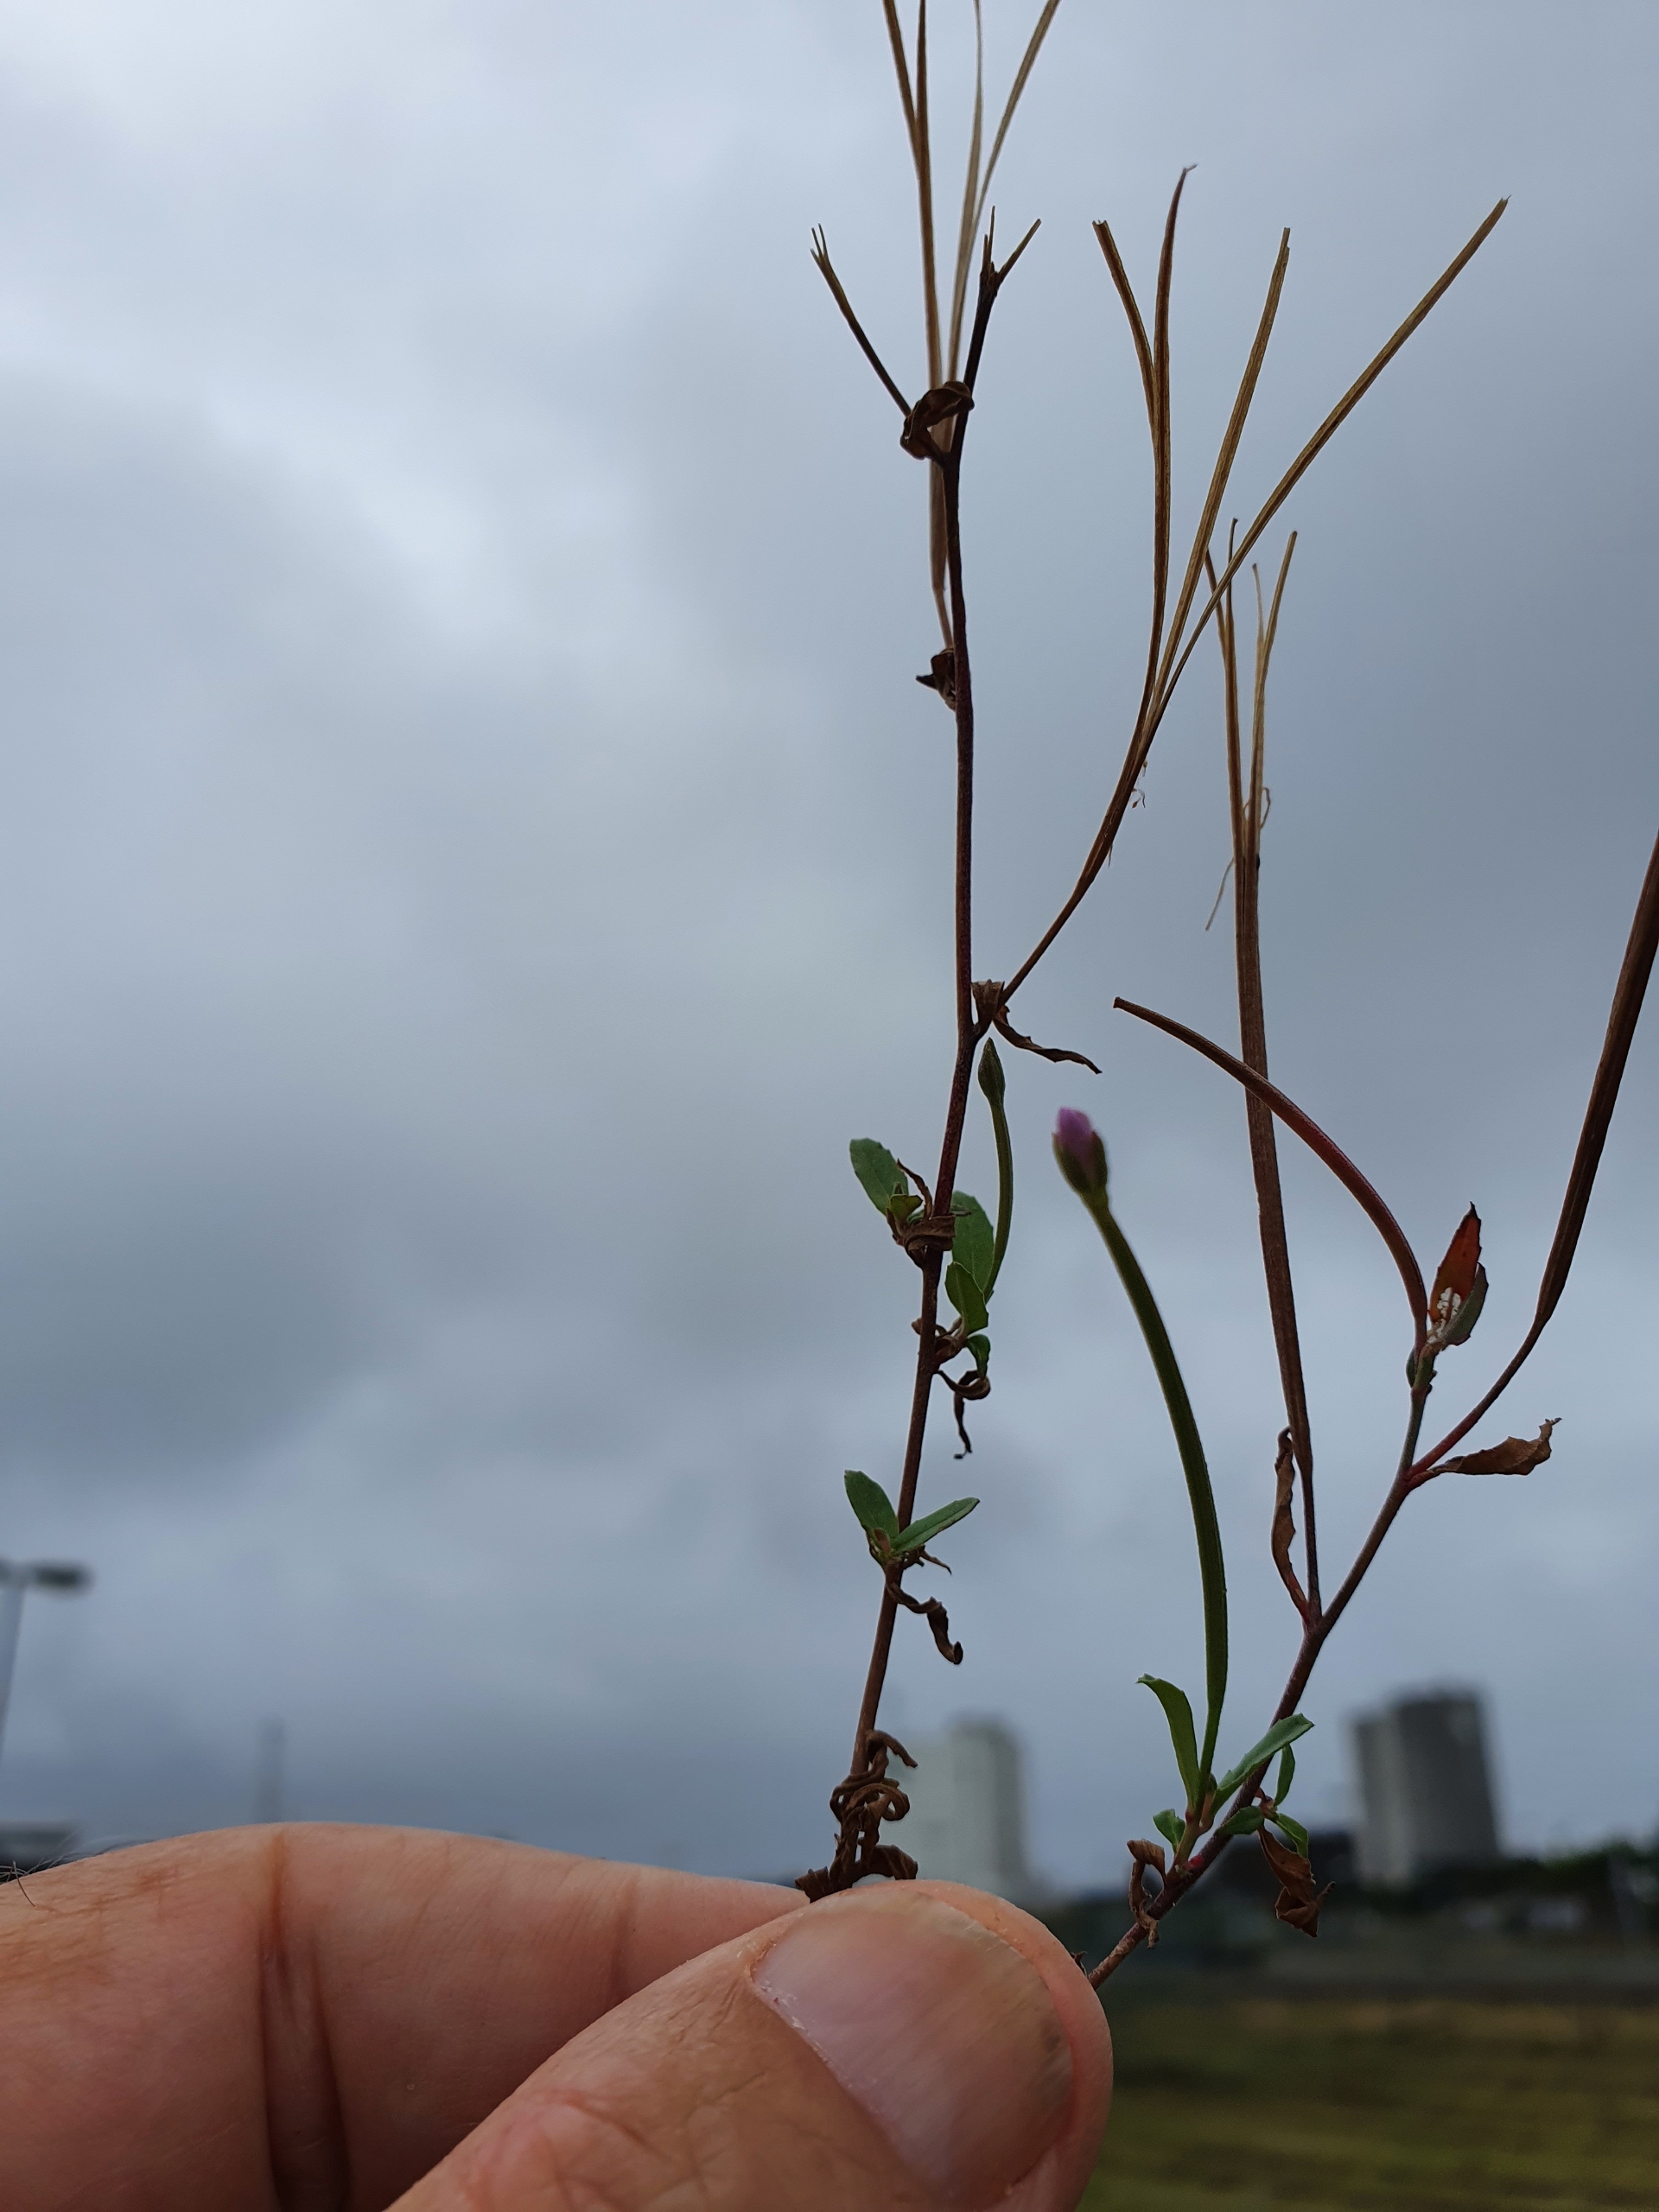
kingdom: Plantae
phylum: Tracheophyta
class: Magnoliopsida
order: Myrtales
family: Onagraceae
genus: Epilobium
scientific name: Epilobium
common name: Dueurtslægten
